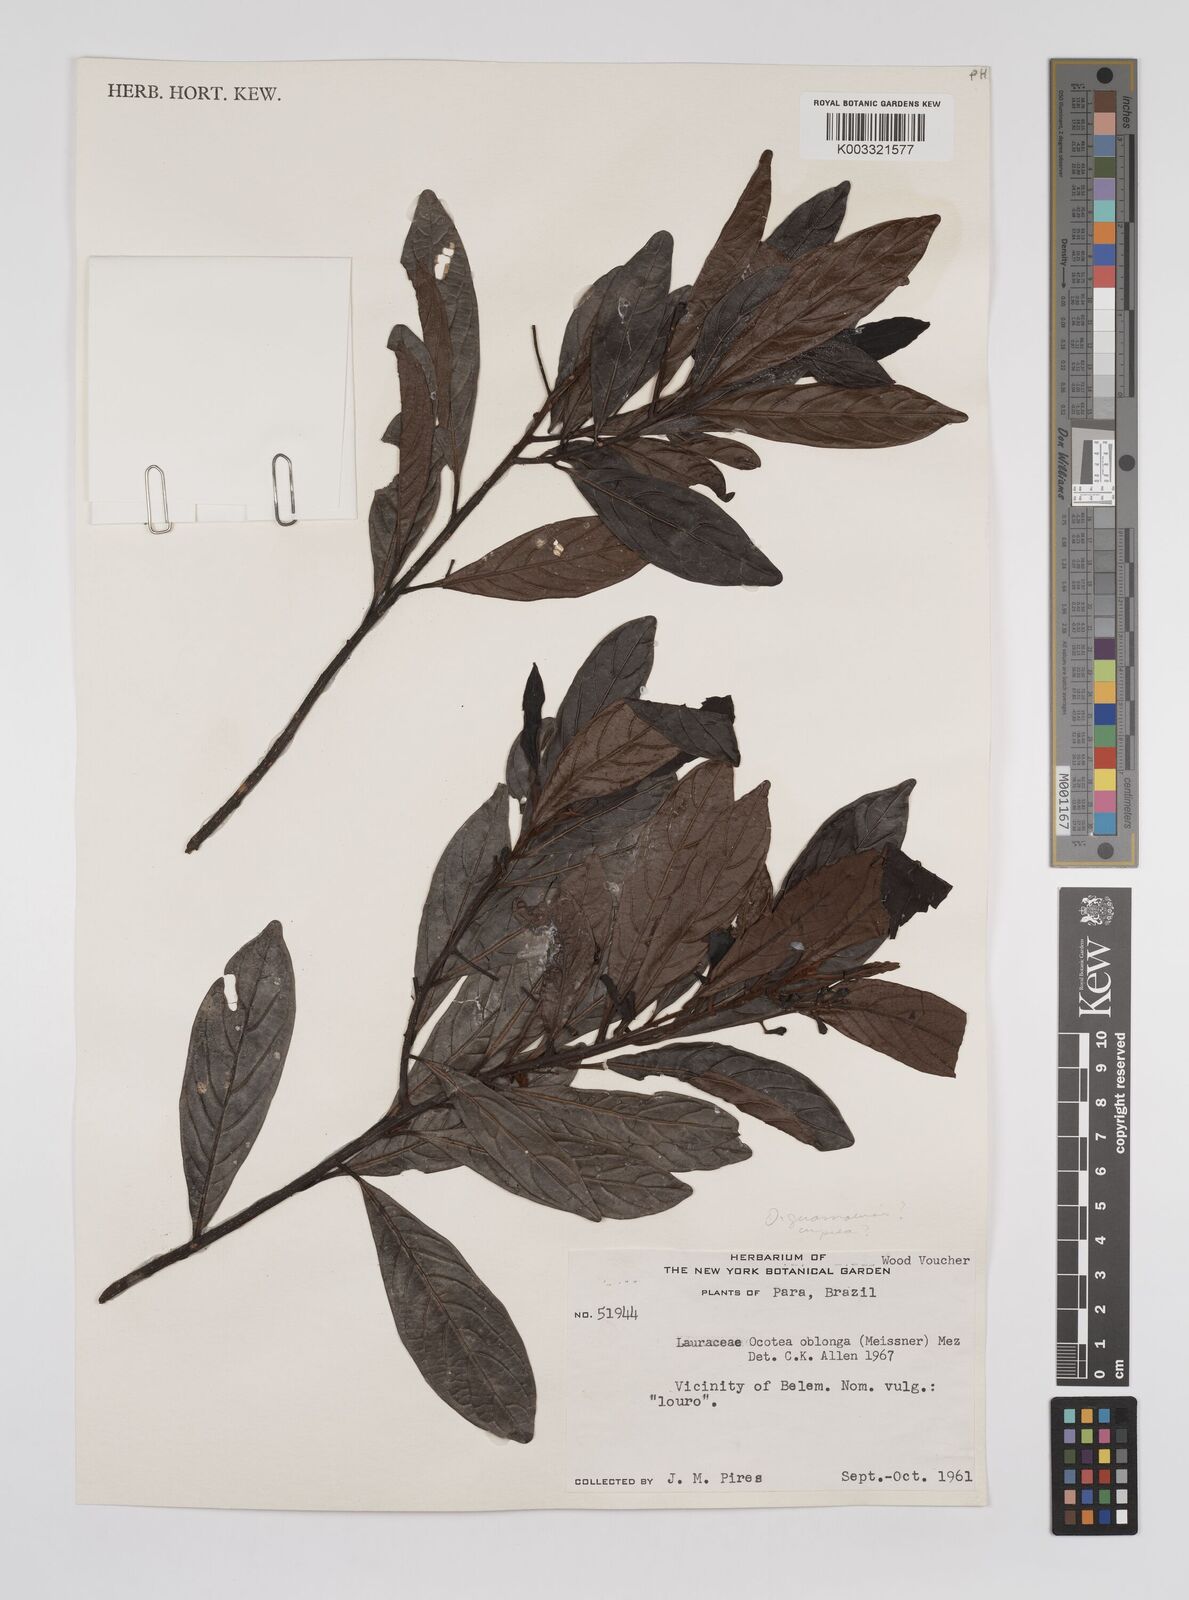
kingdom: Plantae
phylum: Tracheophyta
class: Magnoliopsida
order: Laurales
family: Lauraceae
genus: Ocotea
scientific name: Ocotea oblonga
